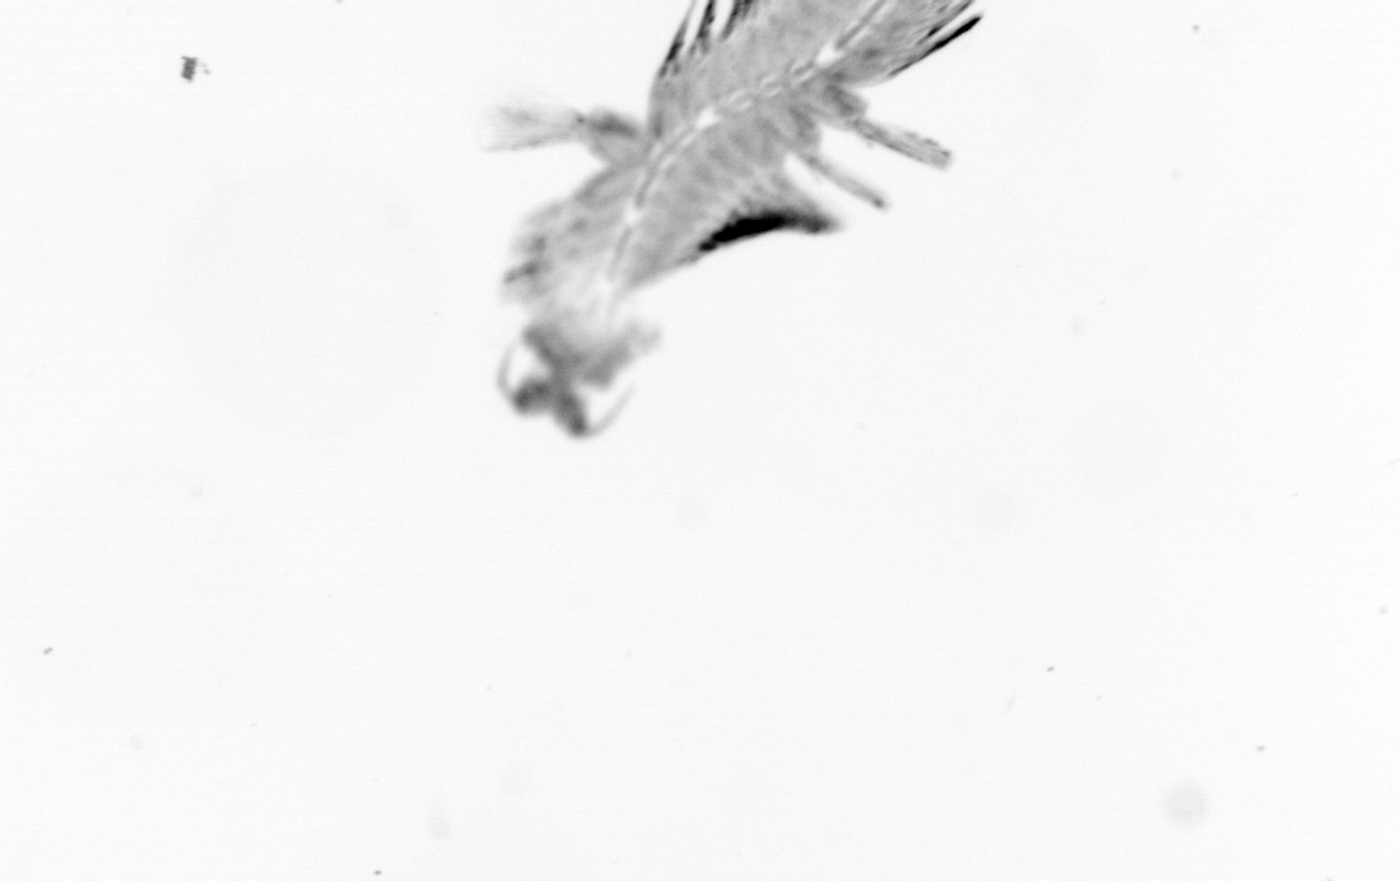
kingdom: Animalia
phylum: Annelida
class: Polychaeta
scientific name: Polychaeta
